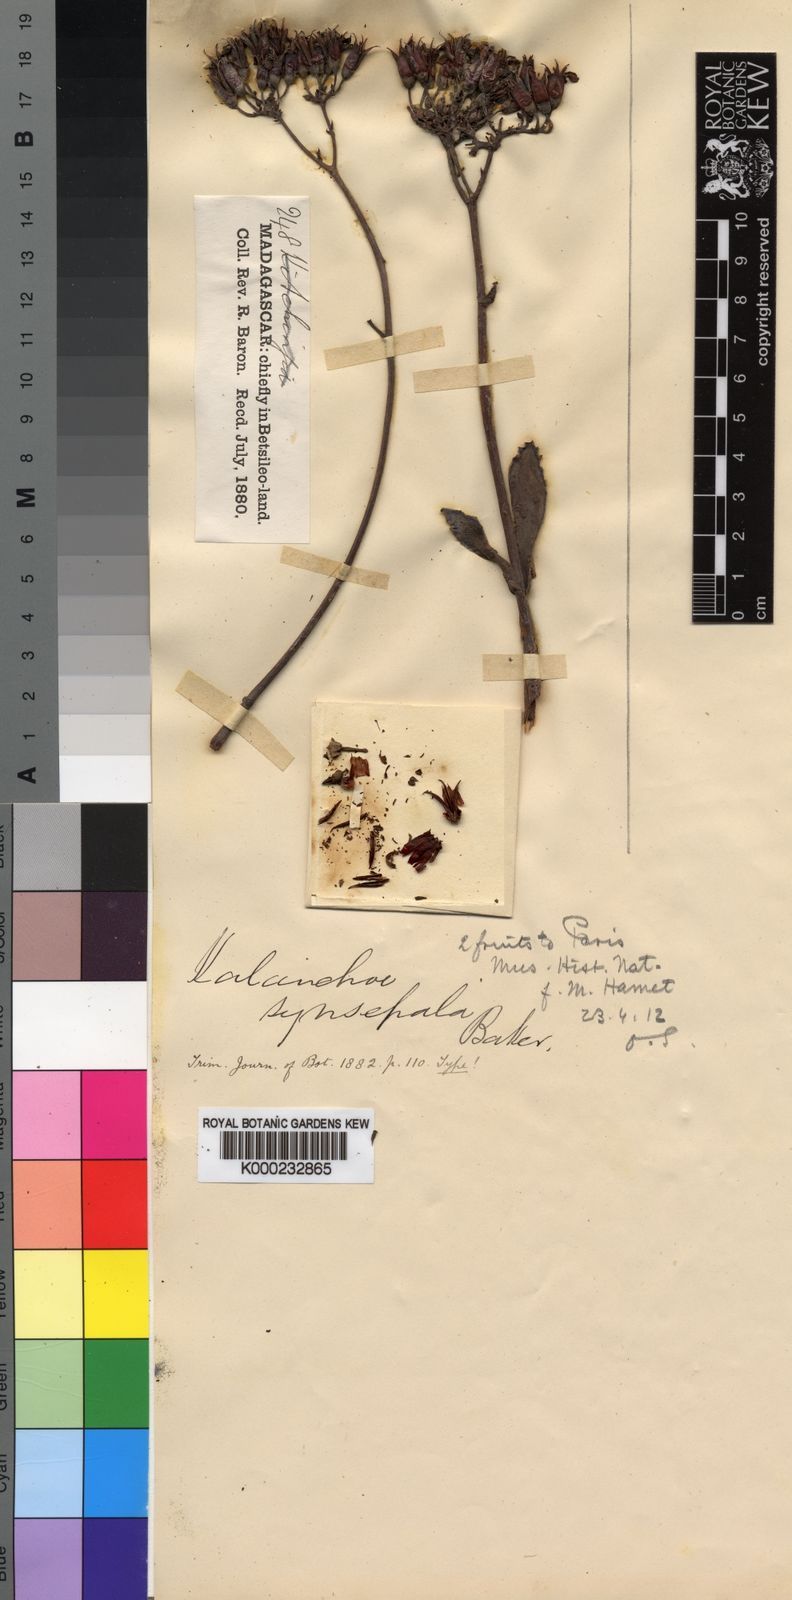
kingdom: Plantae
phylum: Tracheophyta
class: Magnoliopsida
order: Saxifragales
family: Crassulaceae
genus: Kalanchoe
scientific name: Kalanchoe synsepala
